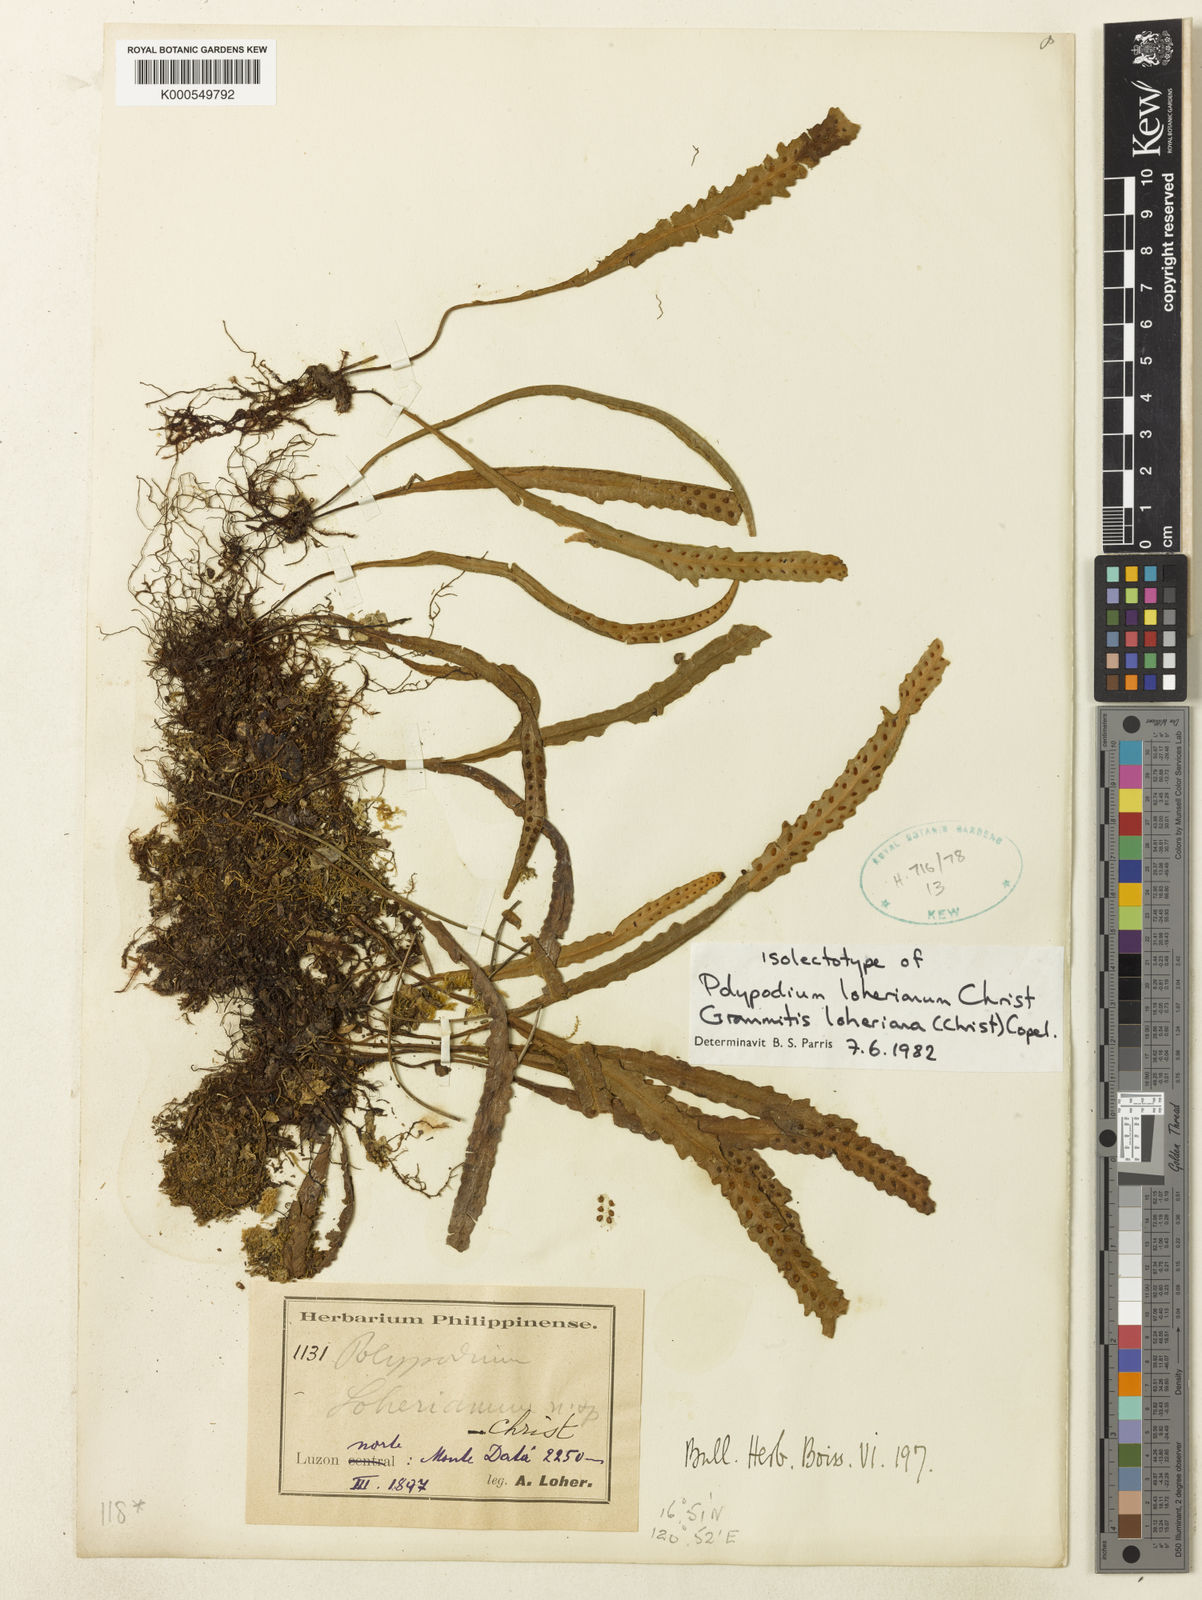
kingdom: Plantae
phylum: Tracheophyta
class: Polypodiopsida
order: Polypodiales
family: Polypodiaceae
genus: Oreogrammitis
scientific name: Oreogrammitis loheriana
